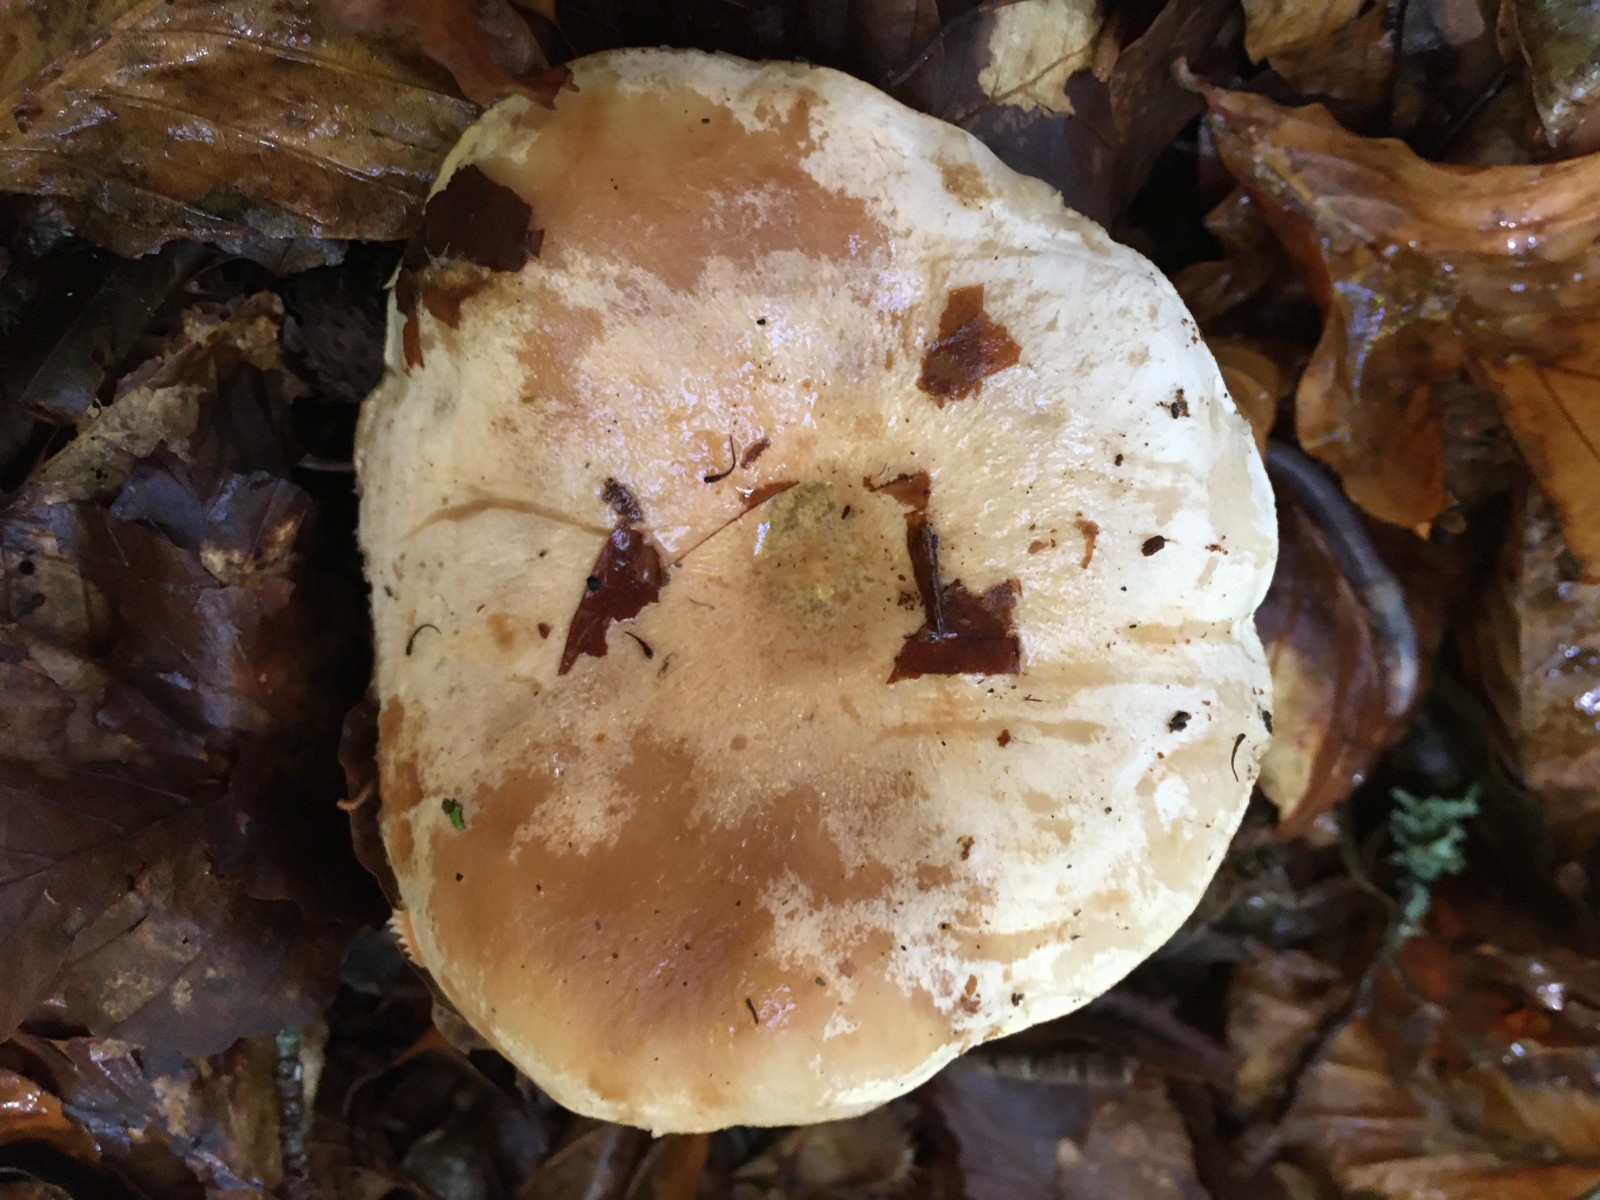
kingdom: Fungi
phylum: Basidiomycota
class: Agaricomycetes
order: Russulales
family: Russulaceae
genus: Lactarius
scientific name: Lactarius pallidus
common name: bleg mælkehat
